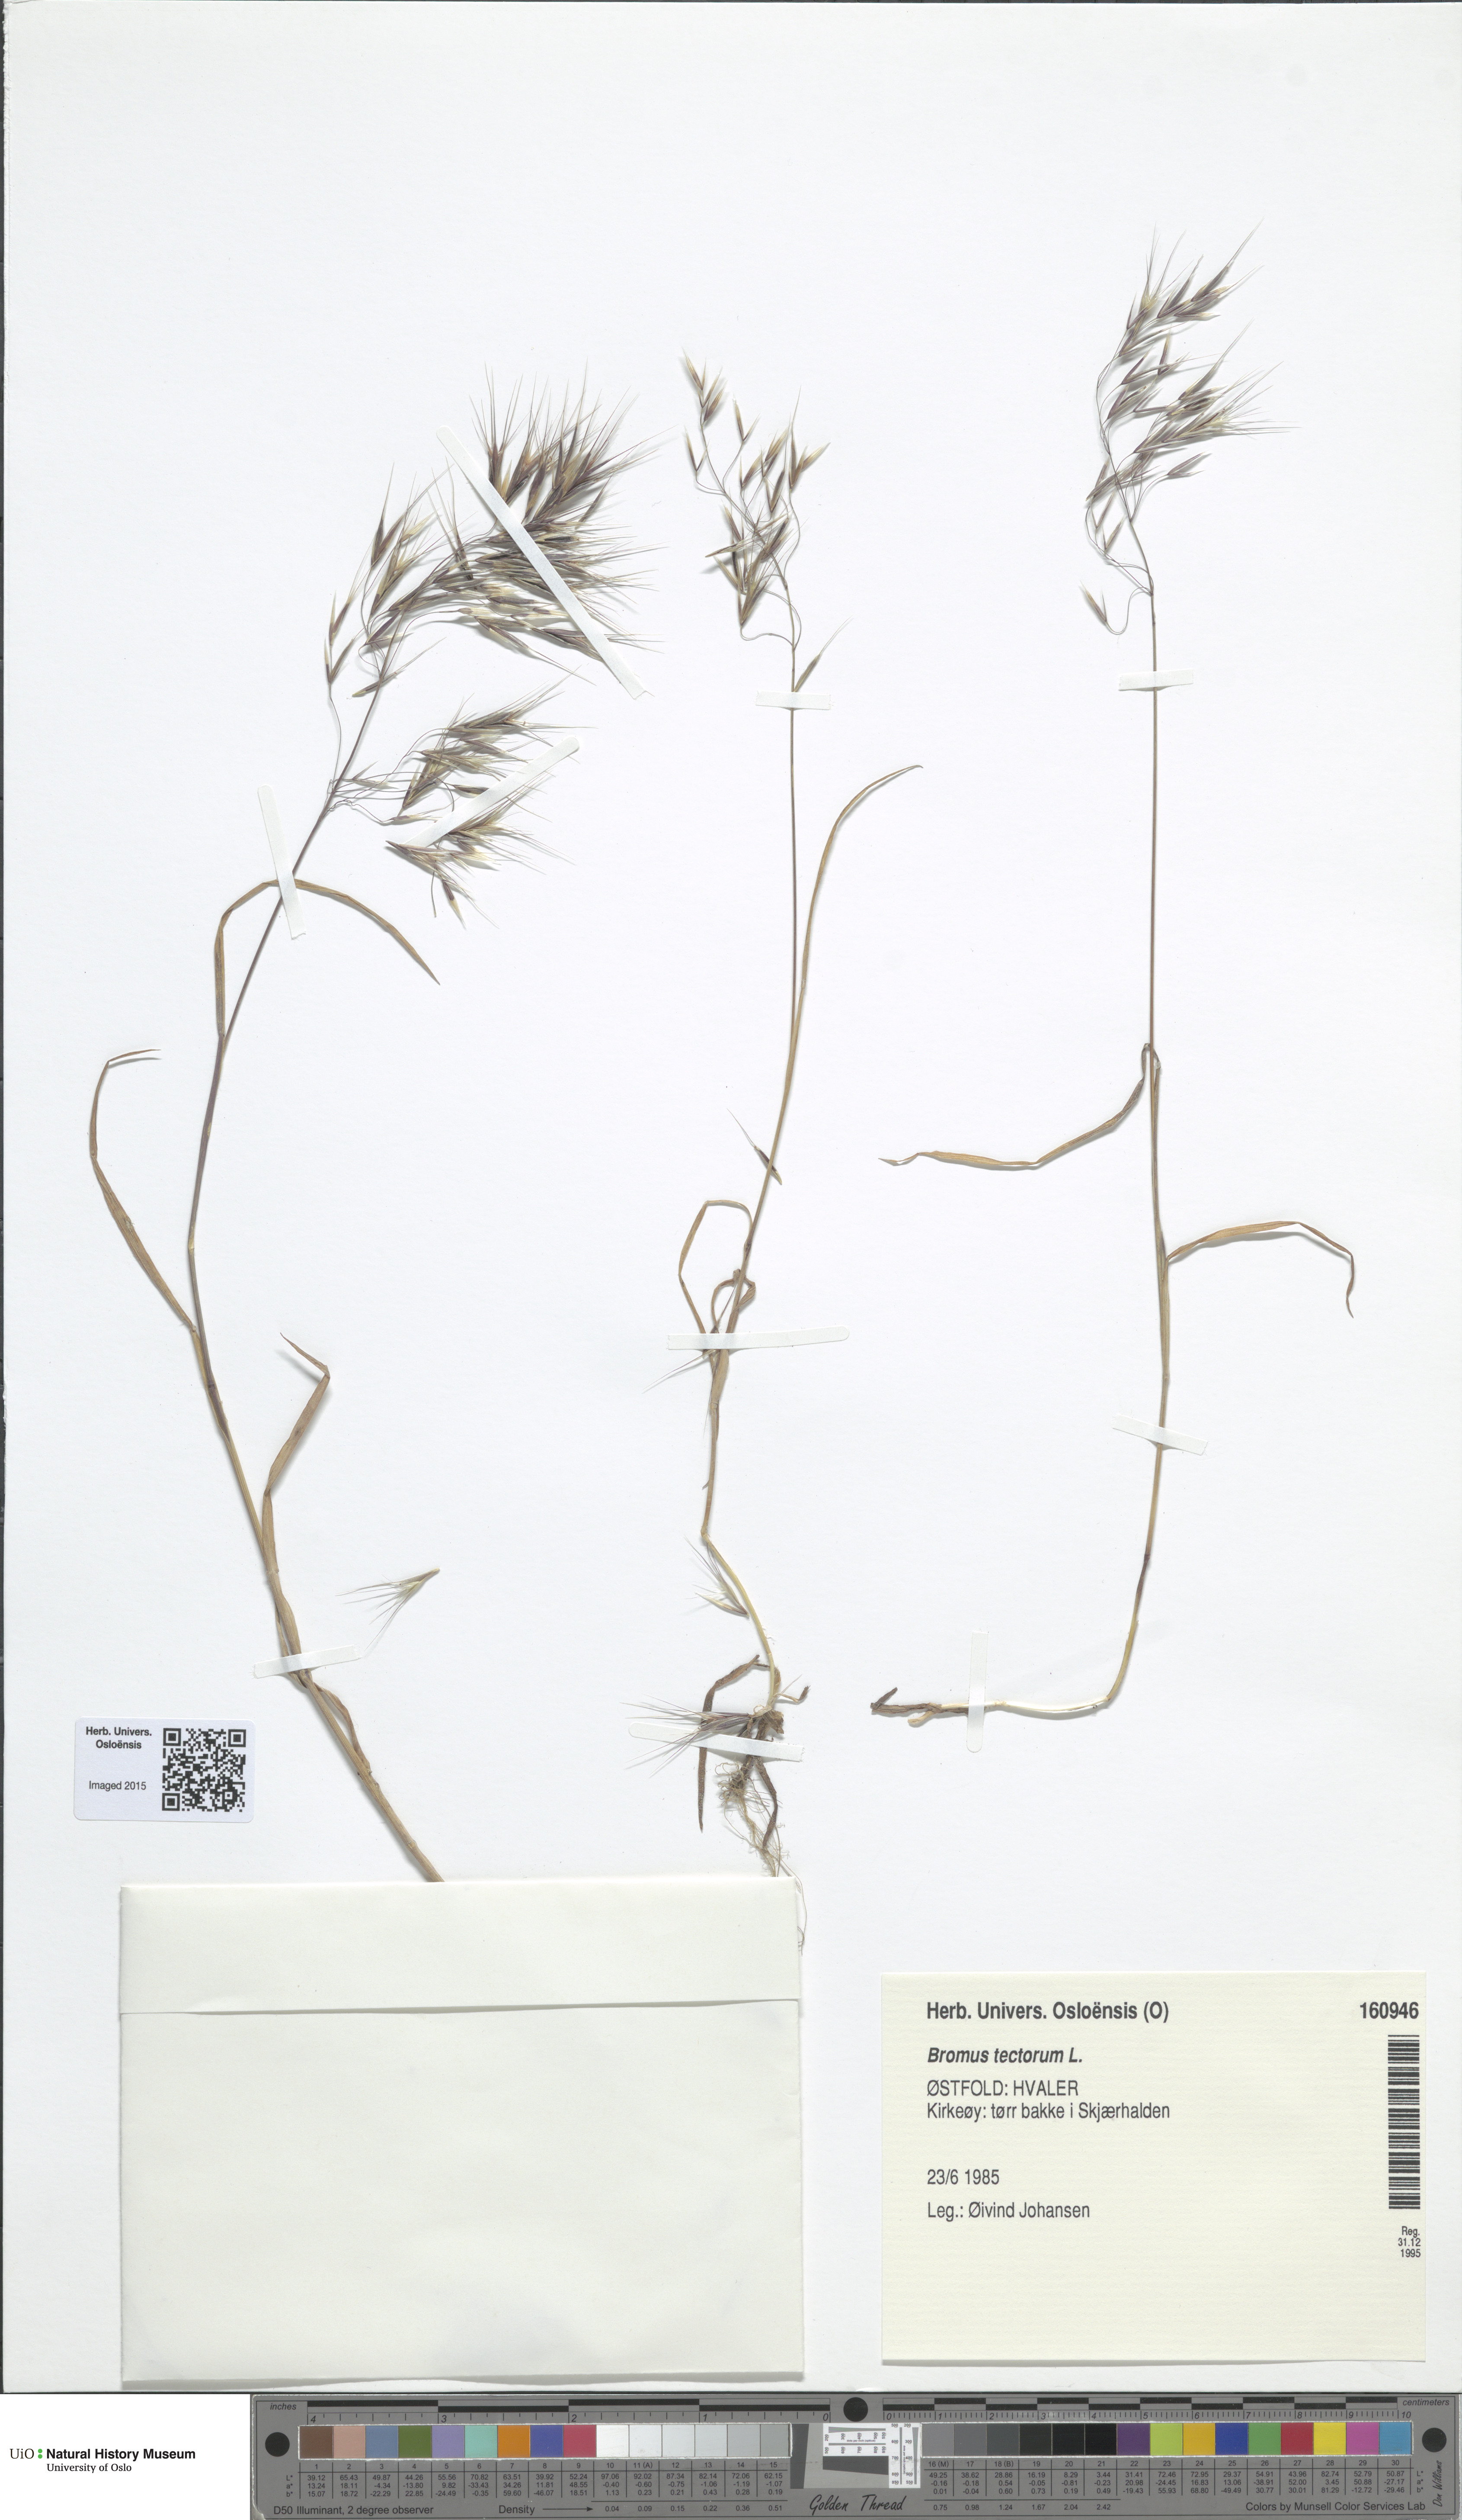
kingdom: Plantae
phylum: Tracheophyta
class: Liliopsida
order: Poales
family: Poaceae
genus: Bromus
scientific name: Bromus tectorum
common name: Cheatgrass
